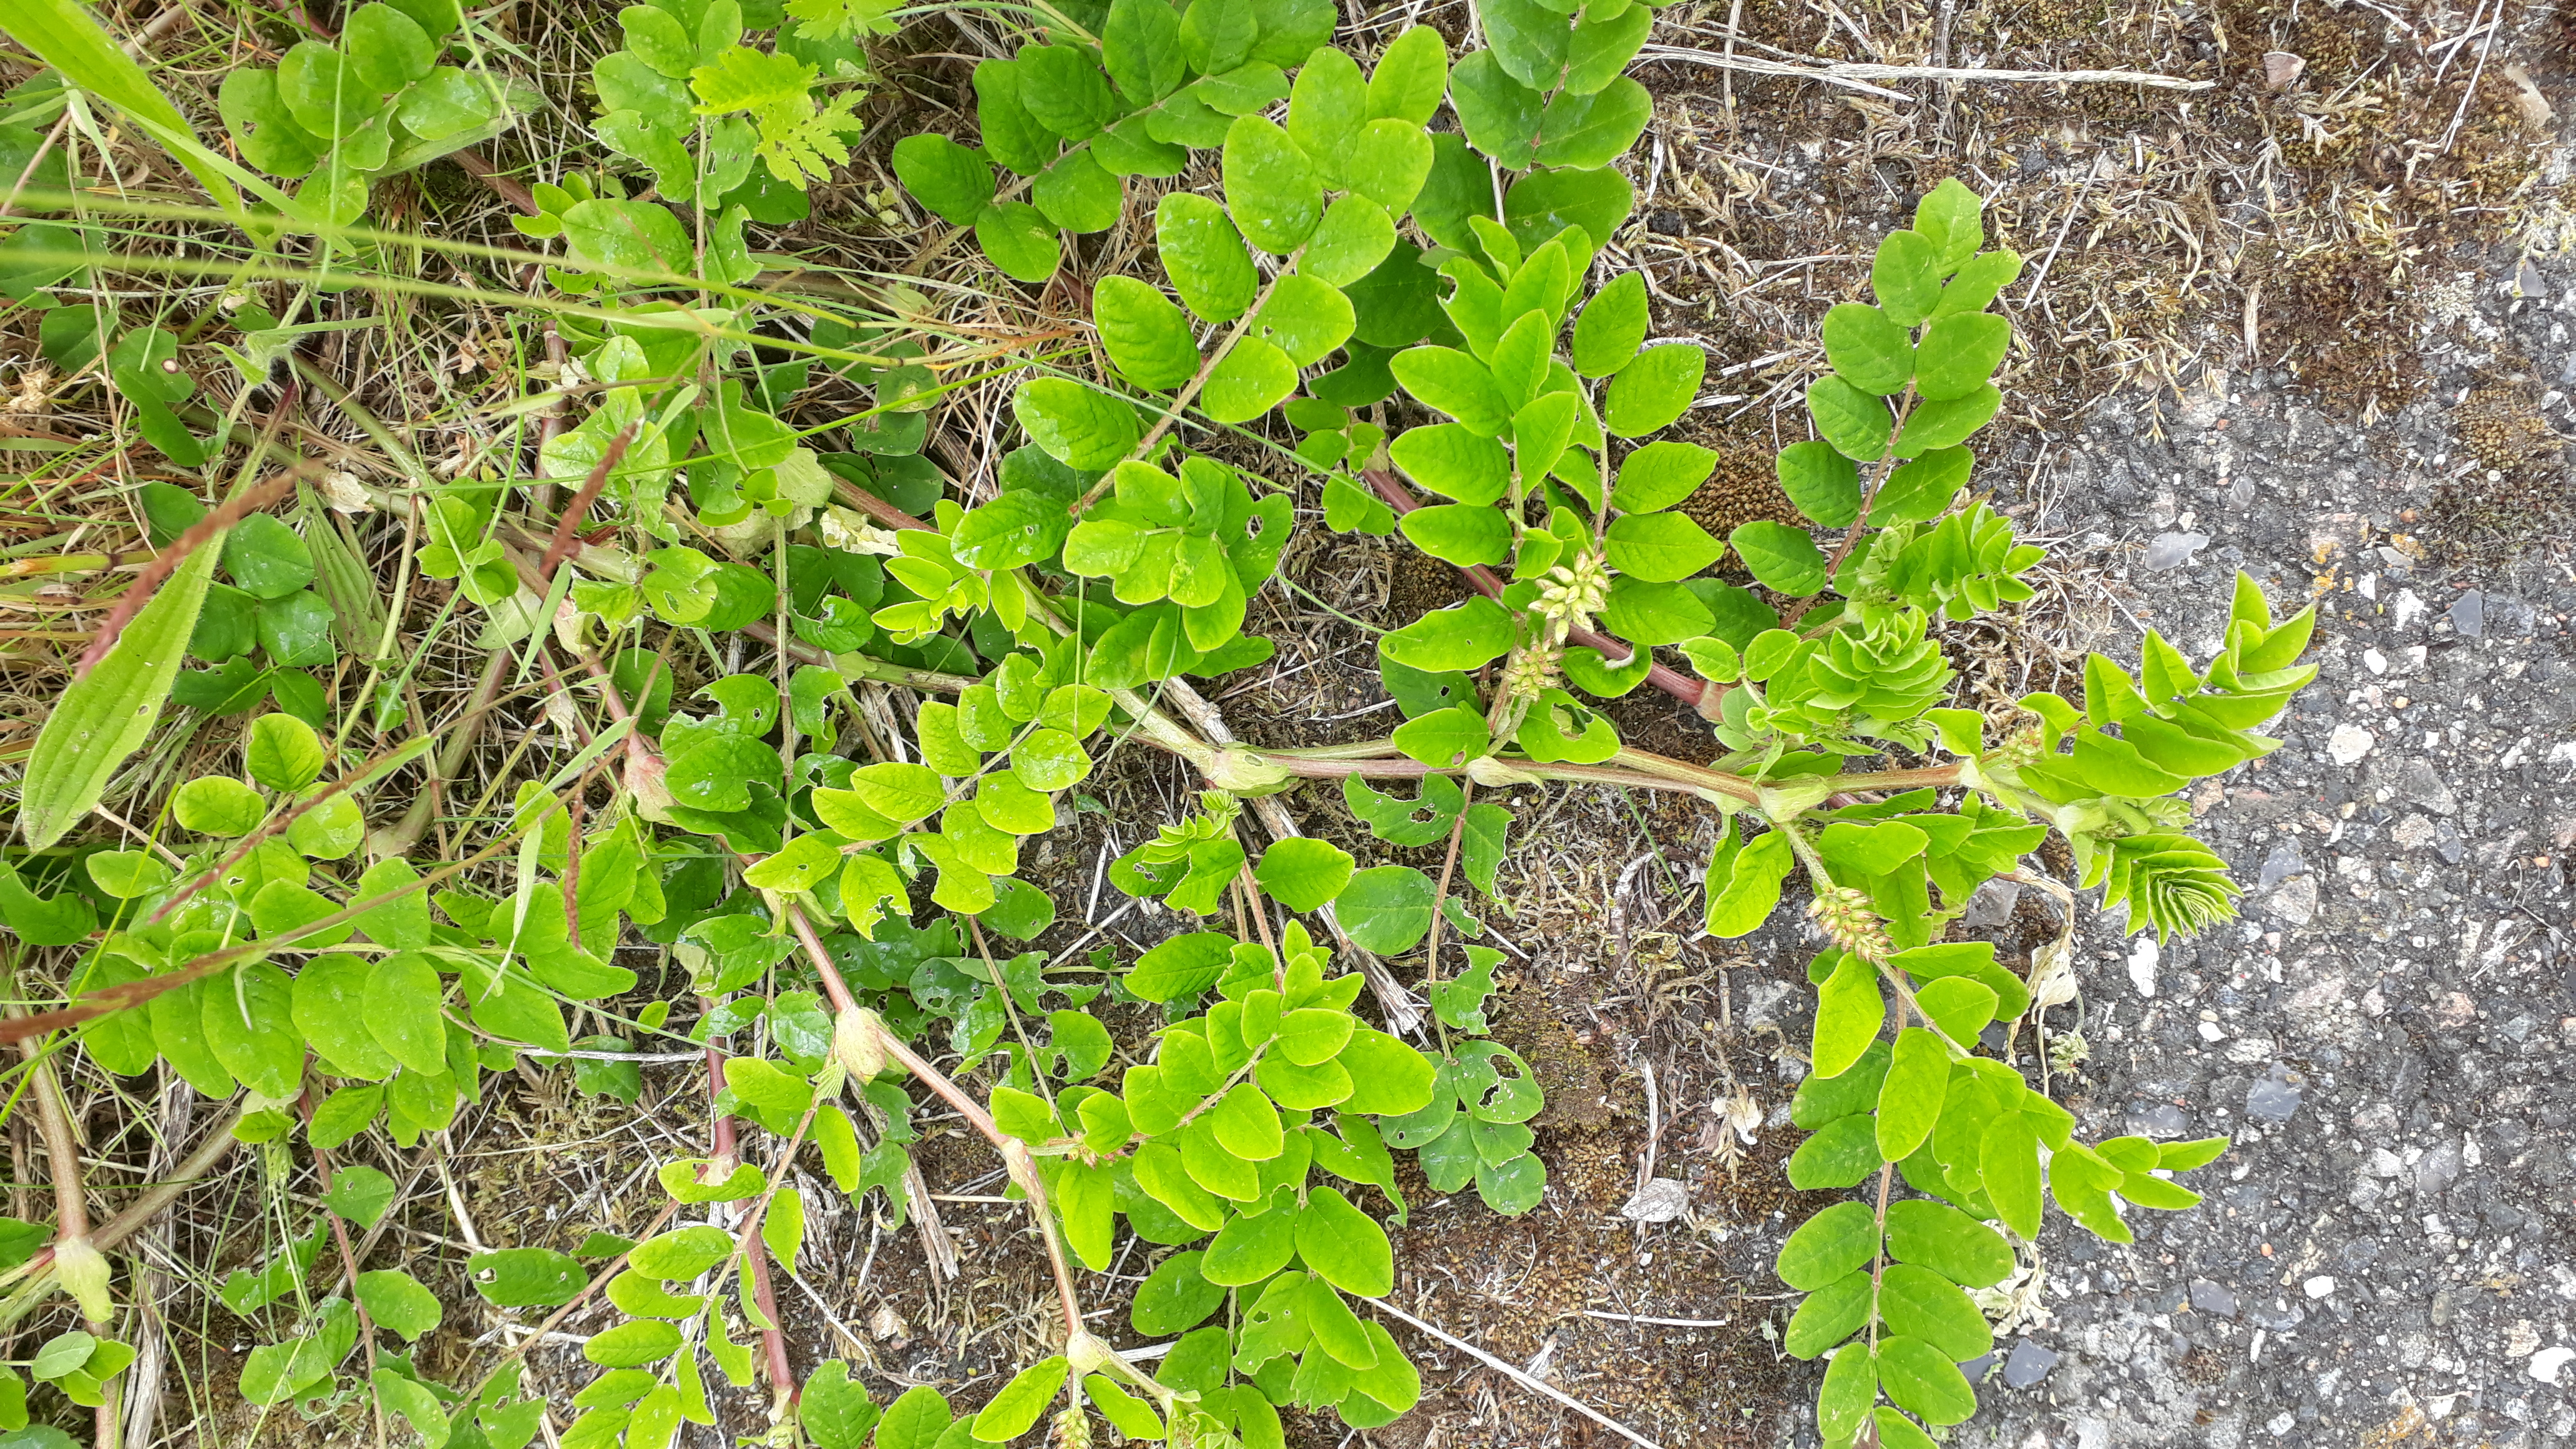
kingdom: Plantae
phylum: Tracheophyta
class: Magnoliopsida
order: Fabales
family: Fabaceae
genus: Astragalus
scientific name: Astragalus glycyphyllos
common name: Sød astragel
